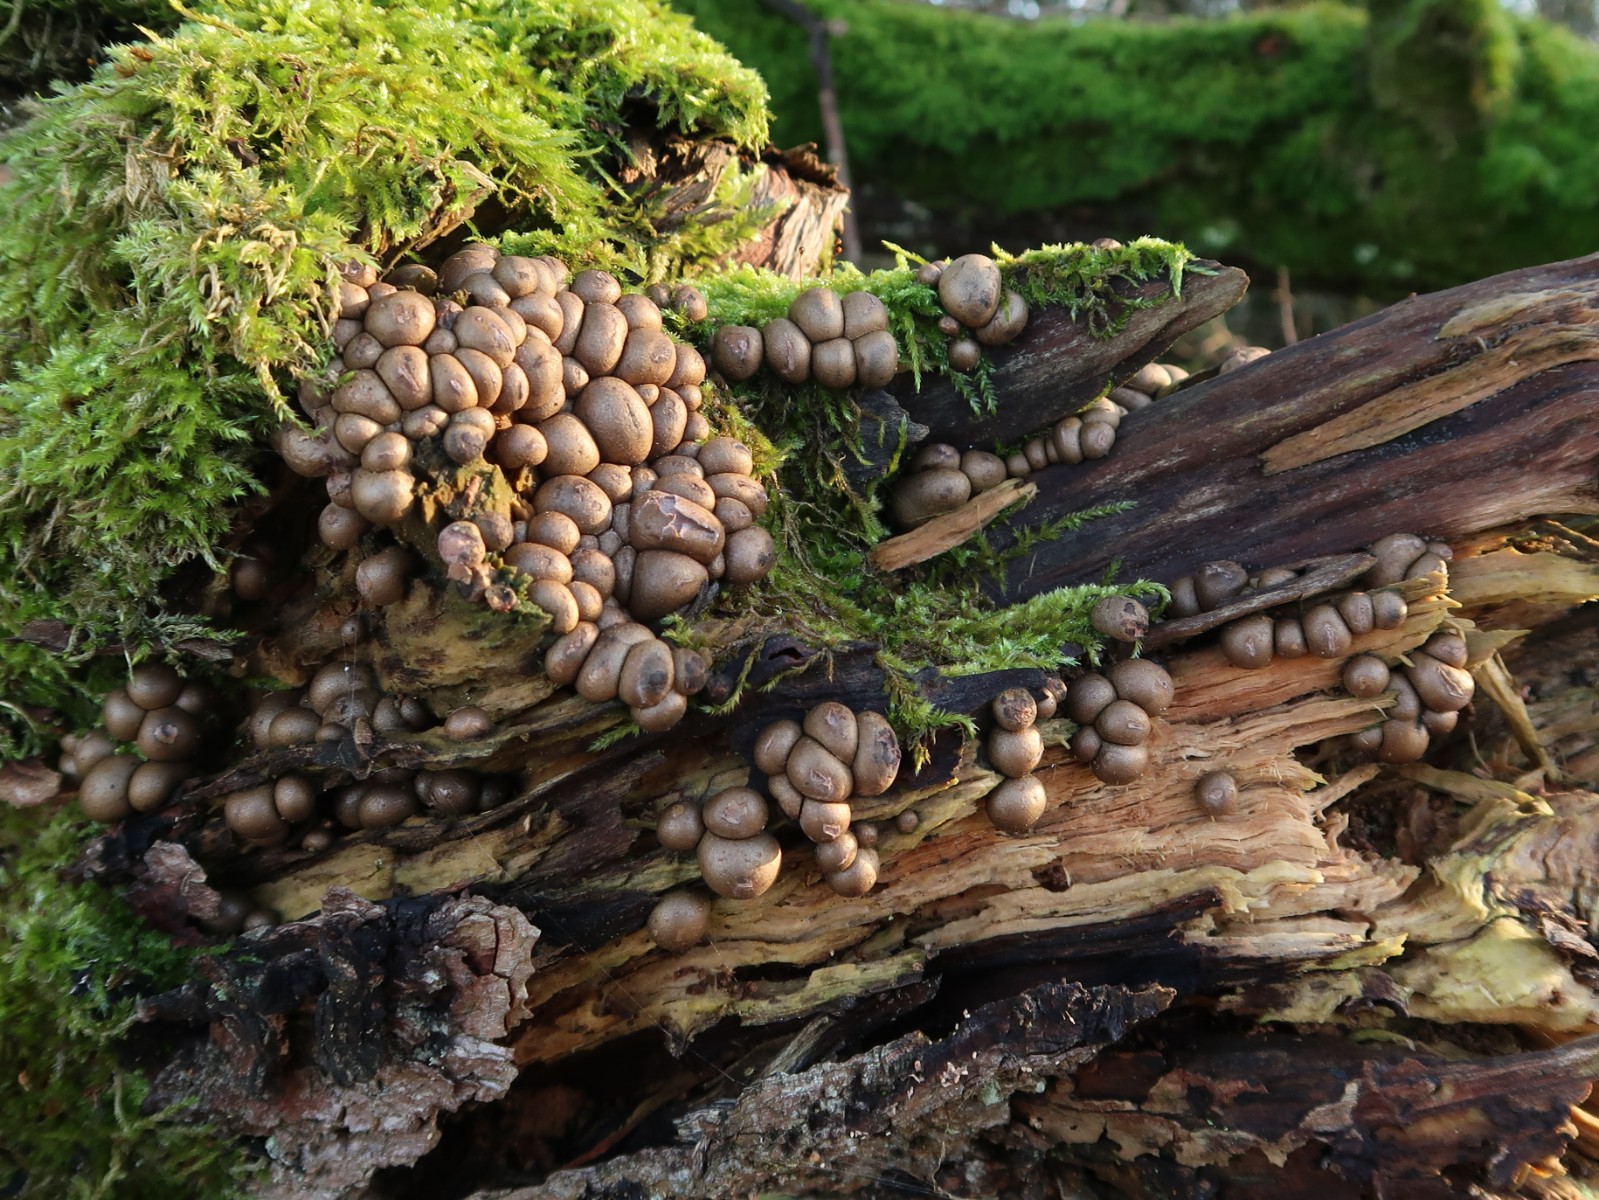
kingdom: Protozoa
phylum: Mycetozoa
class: Myxomycetes
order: Cribrariales
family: Tubiferaceae
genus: Lycogala
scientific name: Lycogala epidendrum
